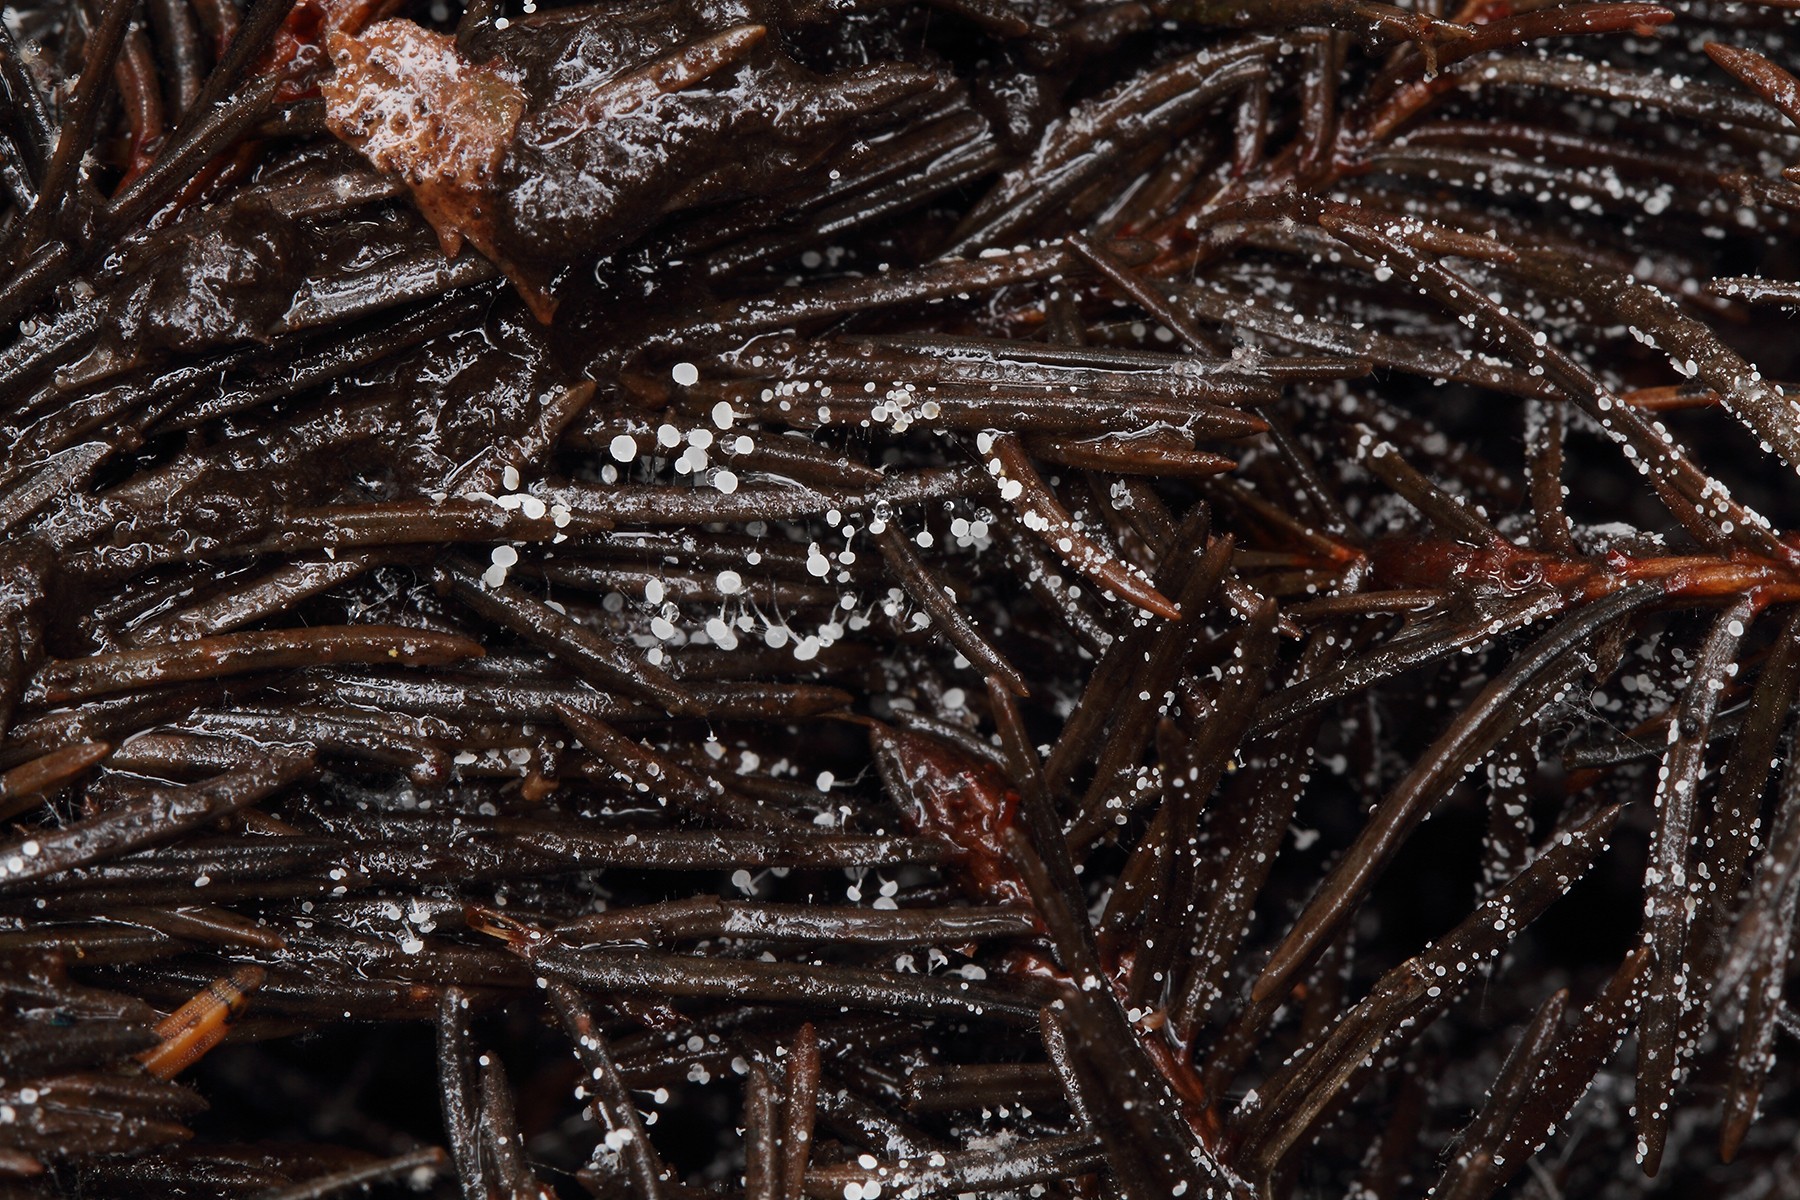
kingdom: Fungi
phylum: Ascomycota
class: Leotiomycetes
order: Helotiales
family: Gelatinodiscaceae
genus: Ombrophila
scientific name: Ombrophila juniperinella
